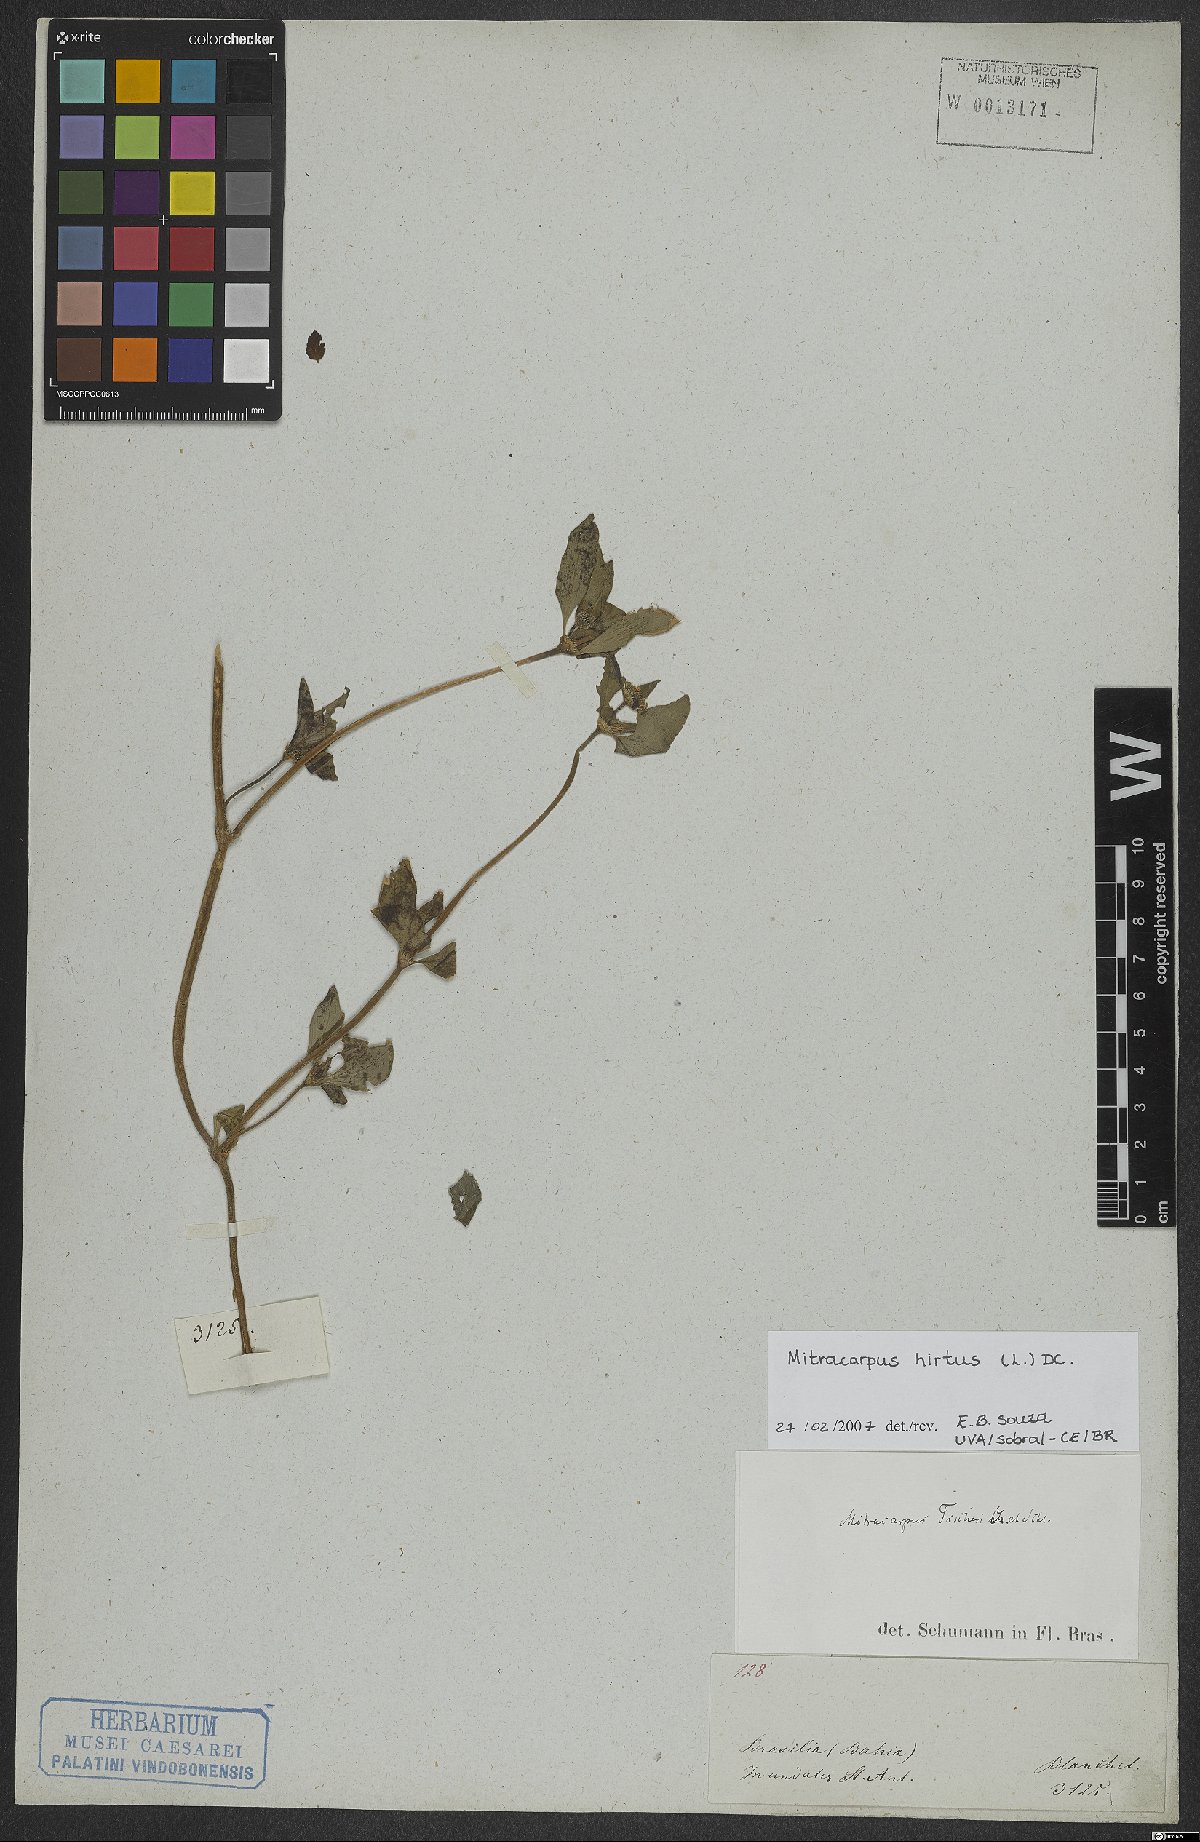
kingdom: Plantae
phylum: Tracheophyta
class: Magnoliopsida
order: Gentianales
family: Rubiaceae
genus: Mitracarpus
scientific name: Mitracarpus hirtus
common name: Tropical girdlepod
